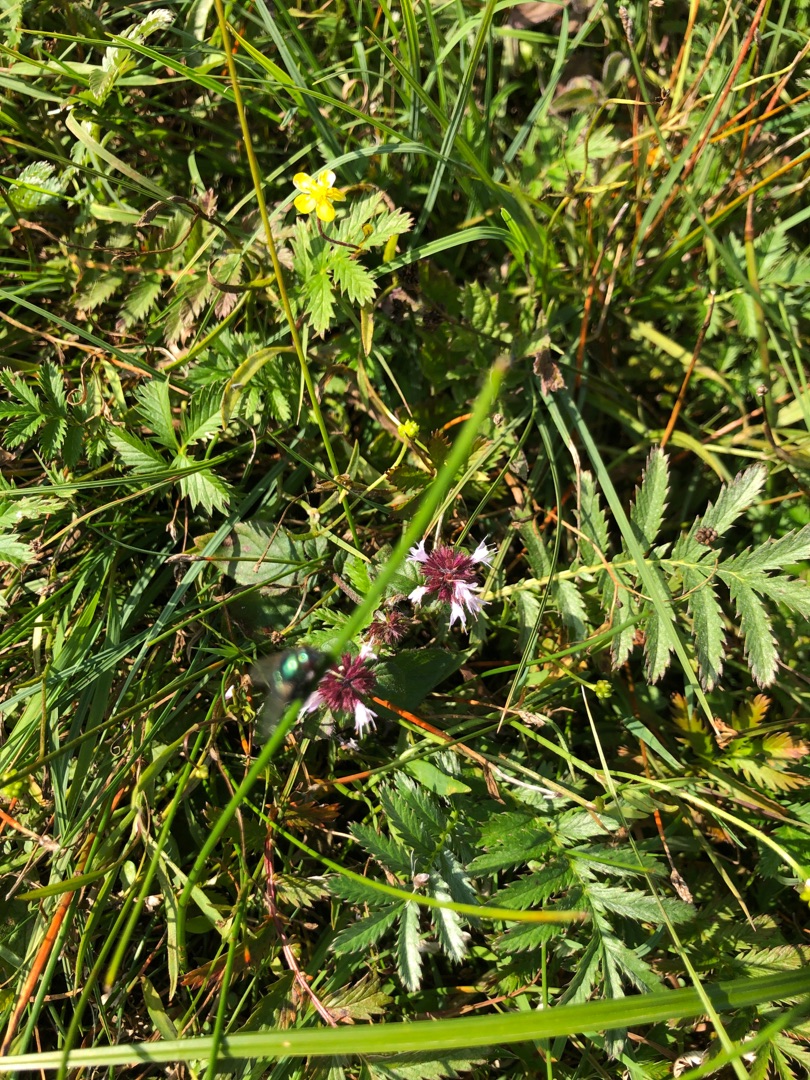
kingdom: Plantae
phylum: Tracheophyta
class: Magnoliopsida
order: Myrtales
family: Lythraceae
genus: Lythrum
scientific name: Lythrum salicaria
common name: Kattehale
